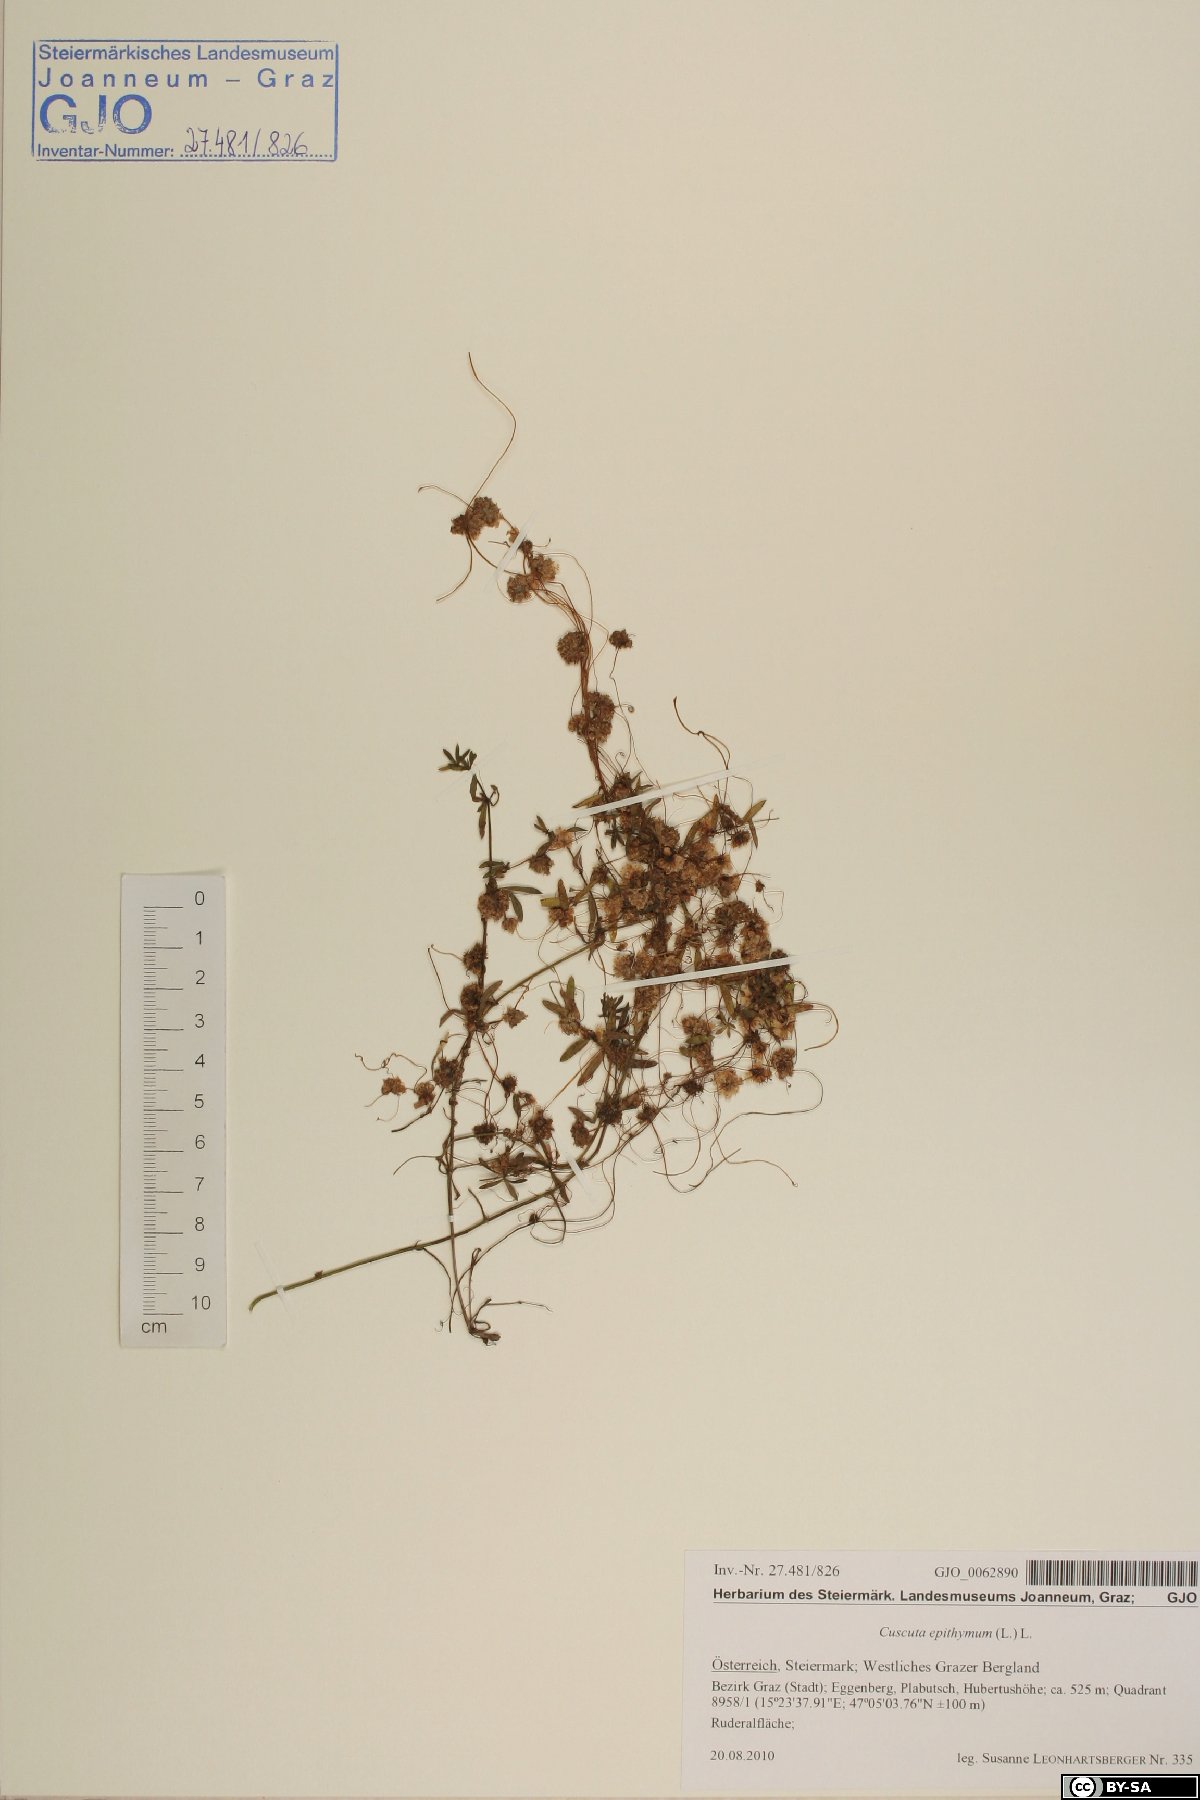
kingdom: Plantae
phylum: Tracheophyta
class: Magnoliopsida
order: Solanales
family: Convolvulaceae
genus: Cuscuta
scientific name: Cuscuta epithymum
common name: Clover dodder
